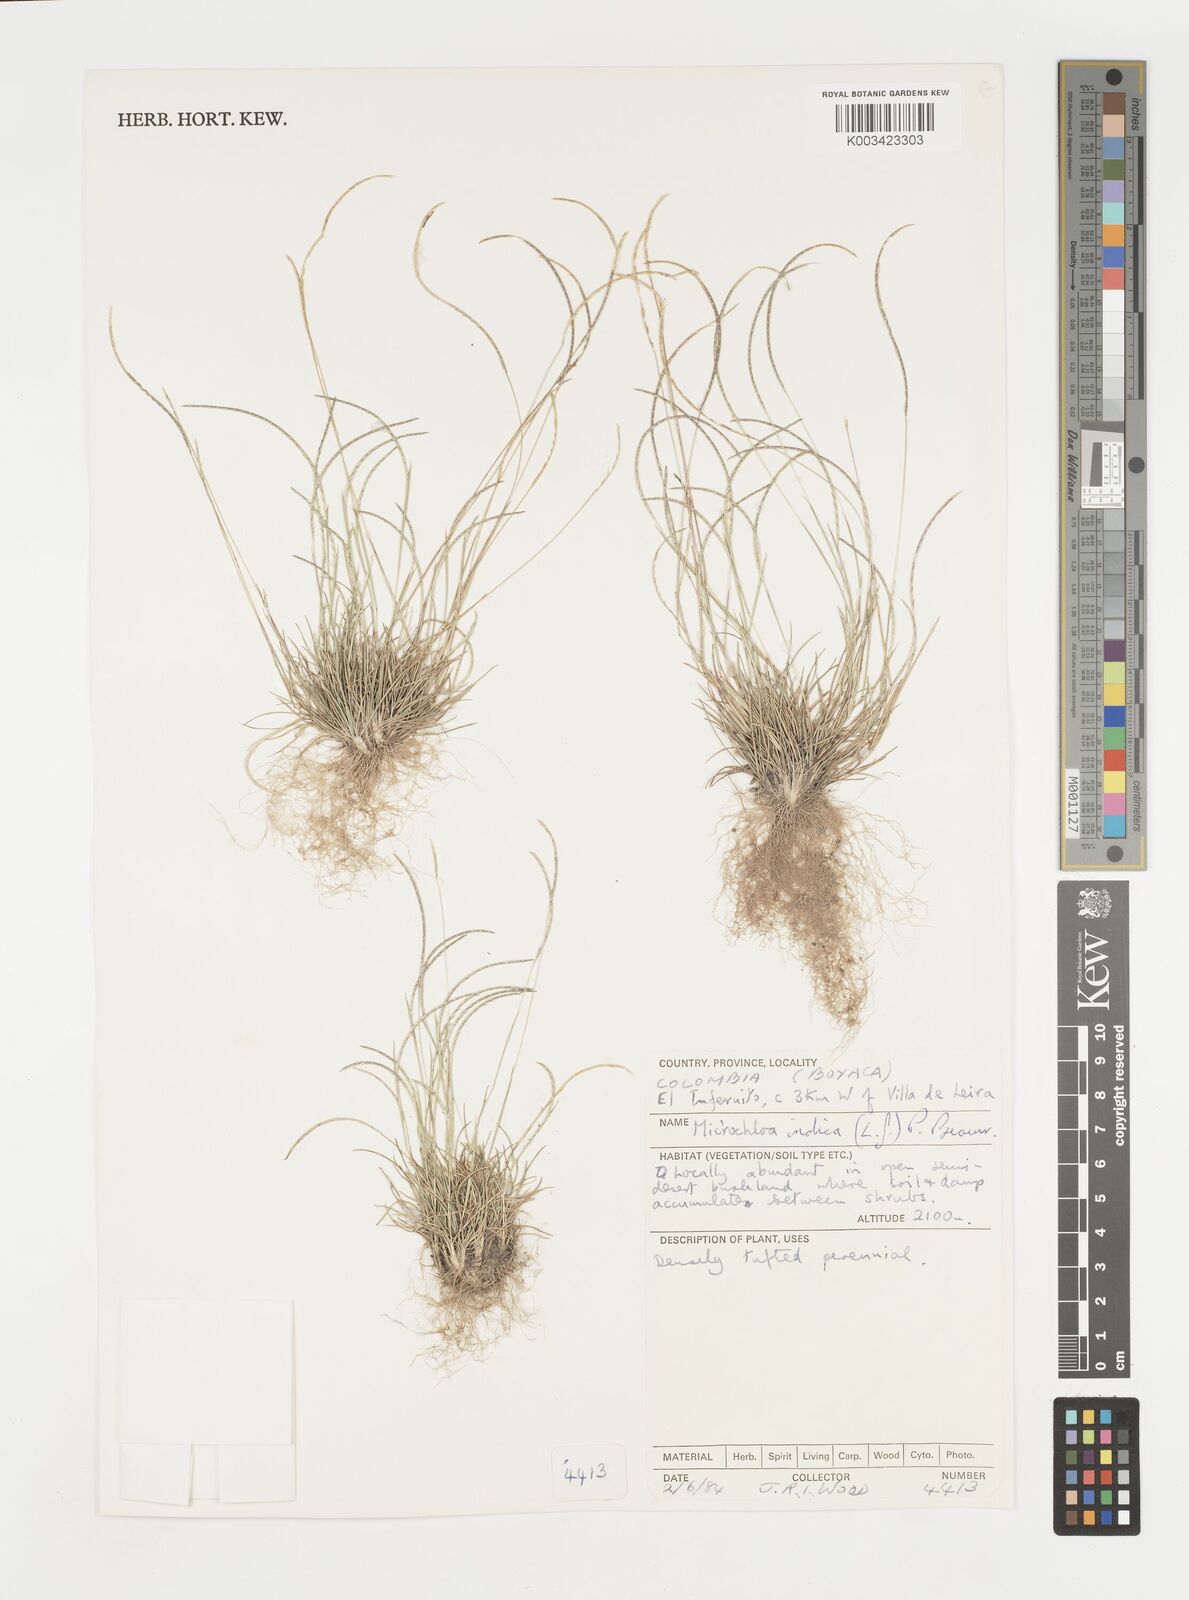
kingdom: Plantae
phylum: Tracheophyta
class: Liliopsida
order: Poales
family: Poaceae
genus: Microchloa
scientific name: Microchloa indica
